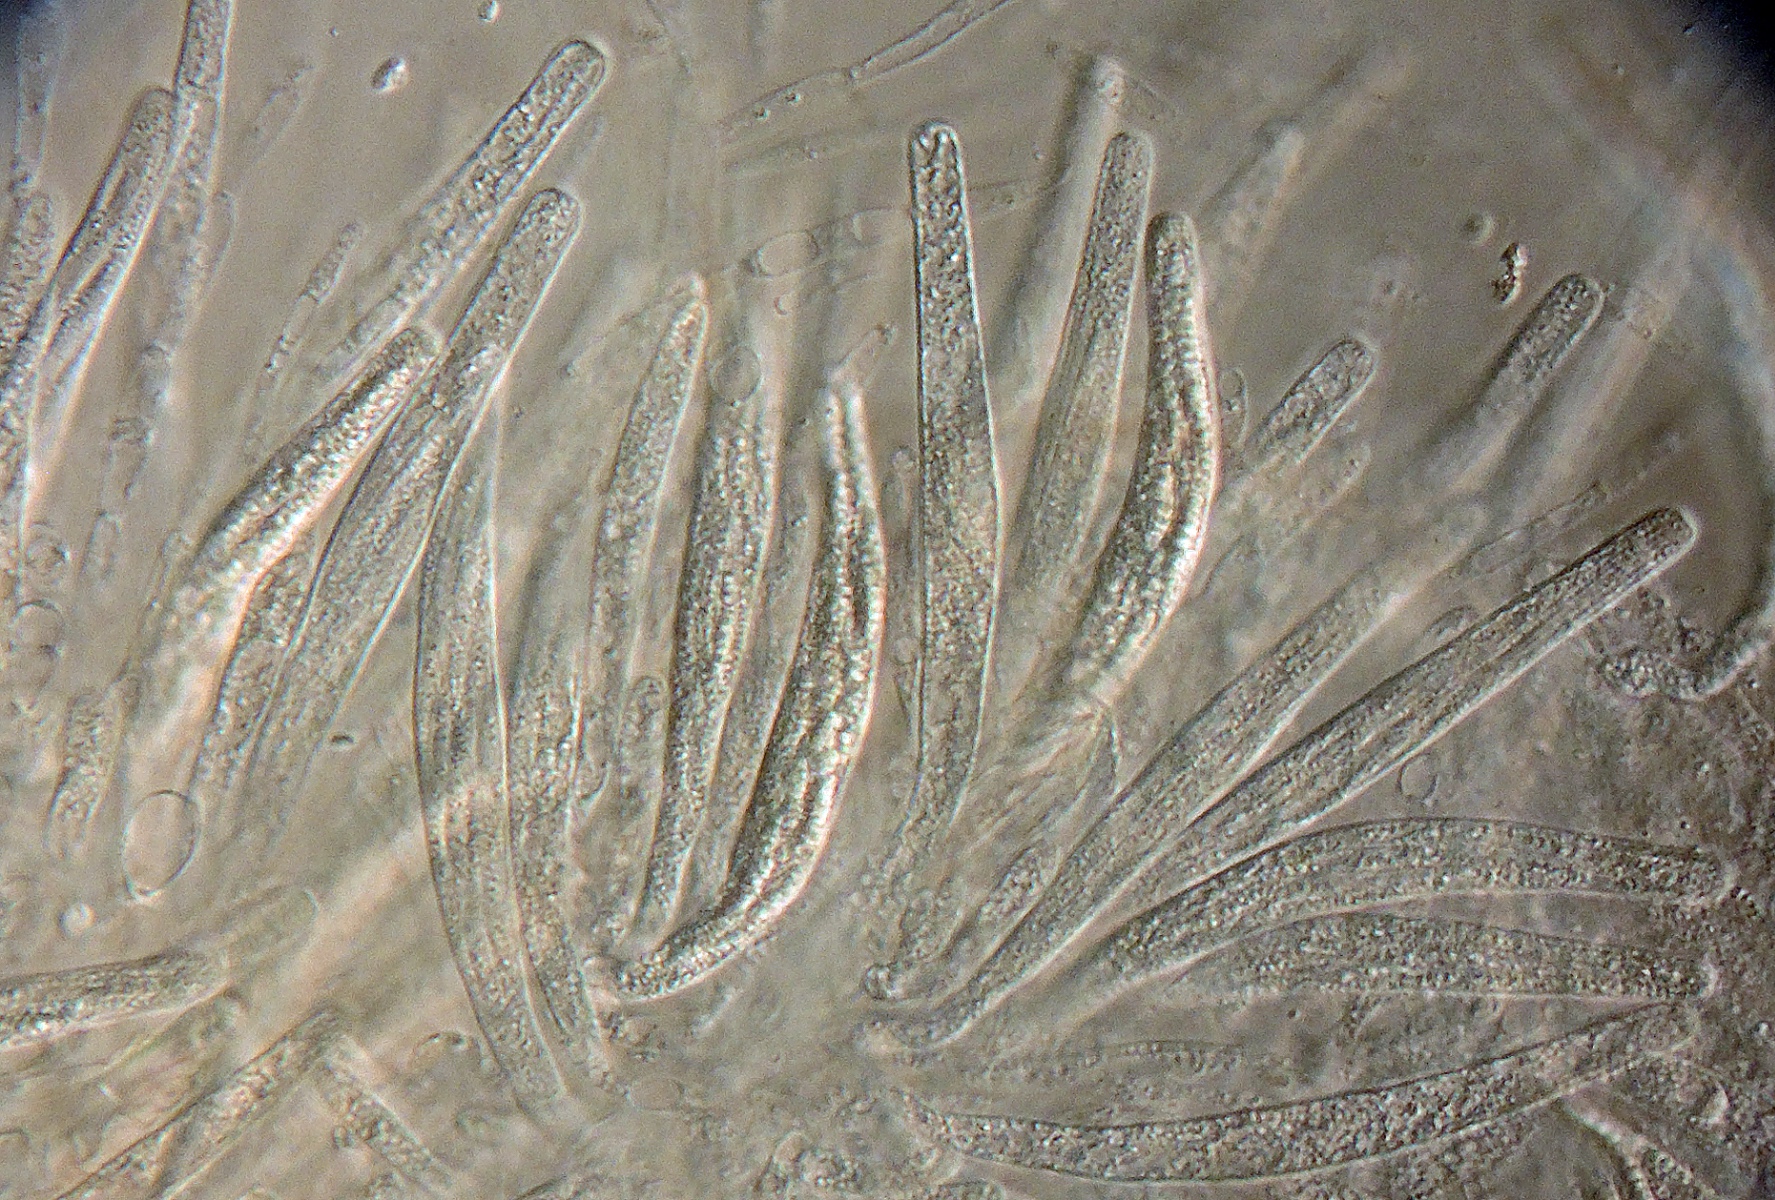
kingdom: Fungi
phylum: Ascomycota
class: Sordariomycetes
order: Sordariales
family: Helminthosphaeriaceae
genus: Hilberina
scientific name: Hilberina rhynchospora
